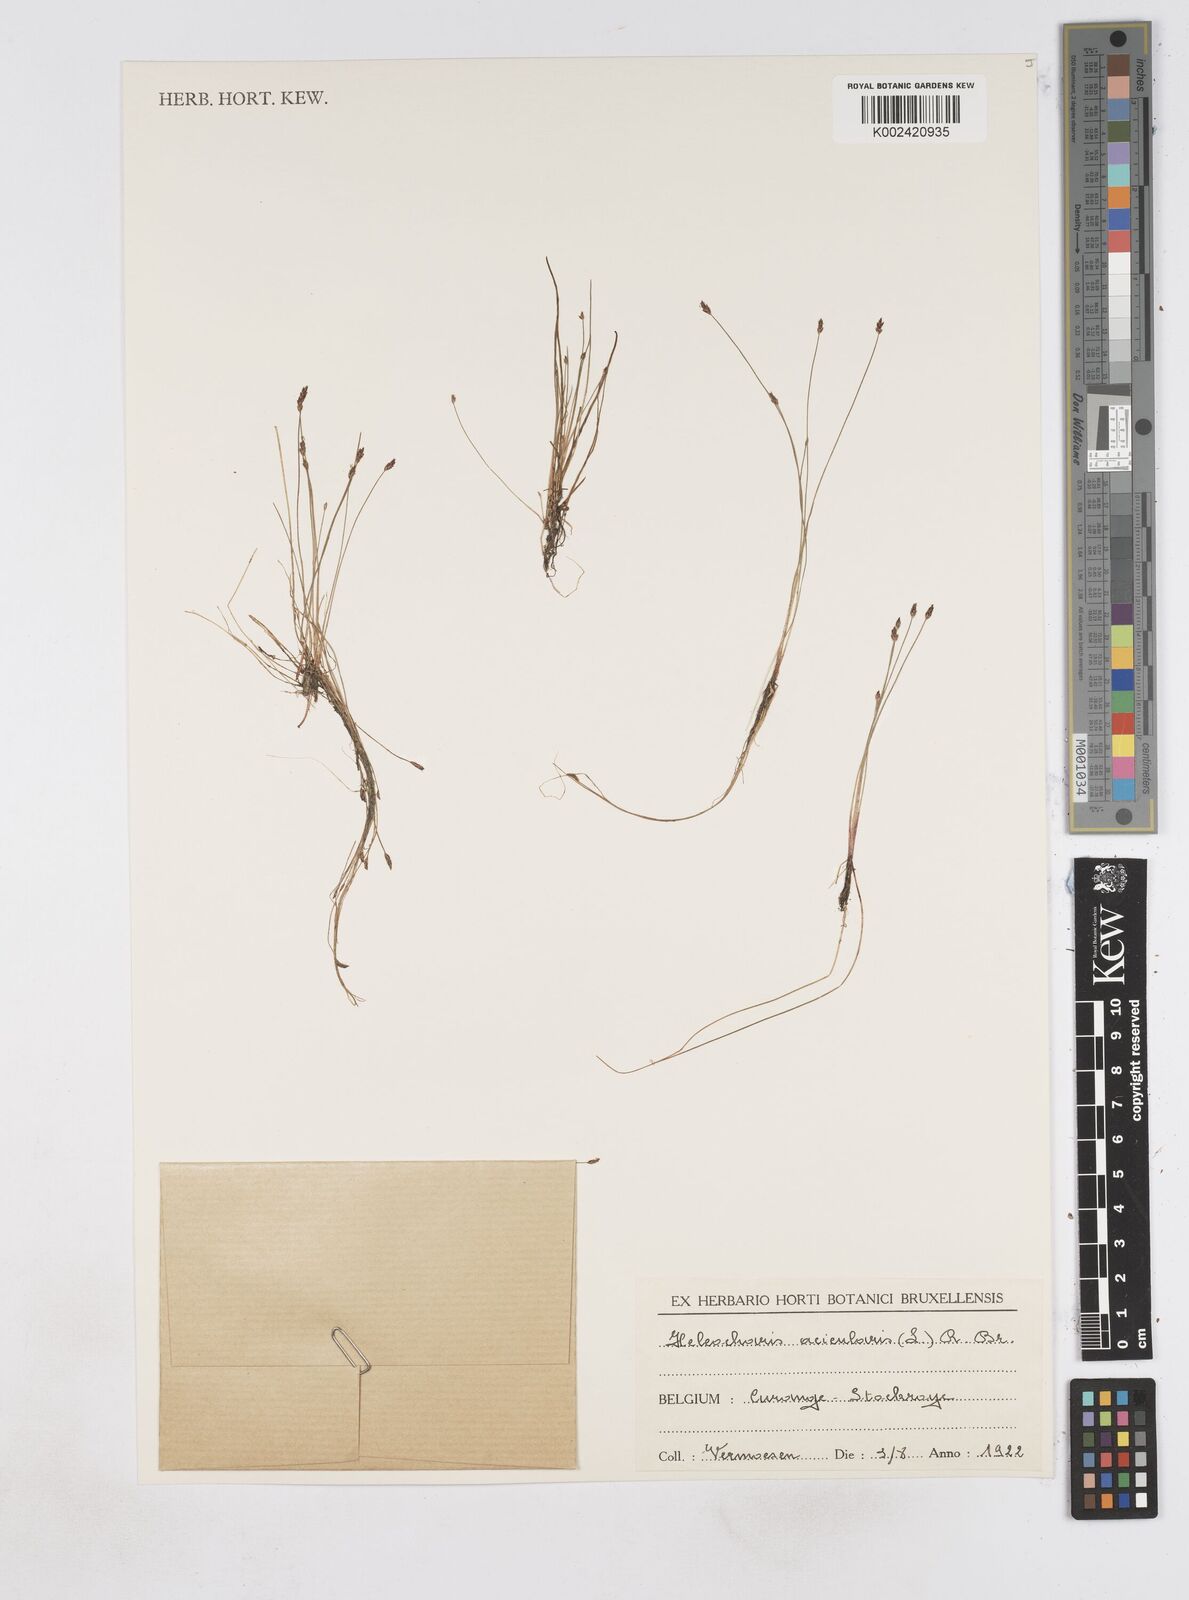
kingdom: Plantae
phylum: Tracheophyta
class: Liliopsida
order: Poales
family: Cyperaceae
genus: Eleocharis
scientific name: Eleocharis acicularis
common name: Needle spike-rush
